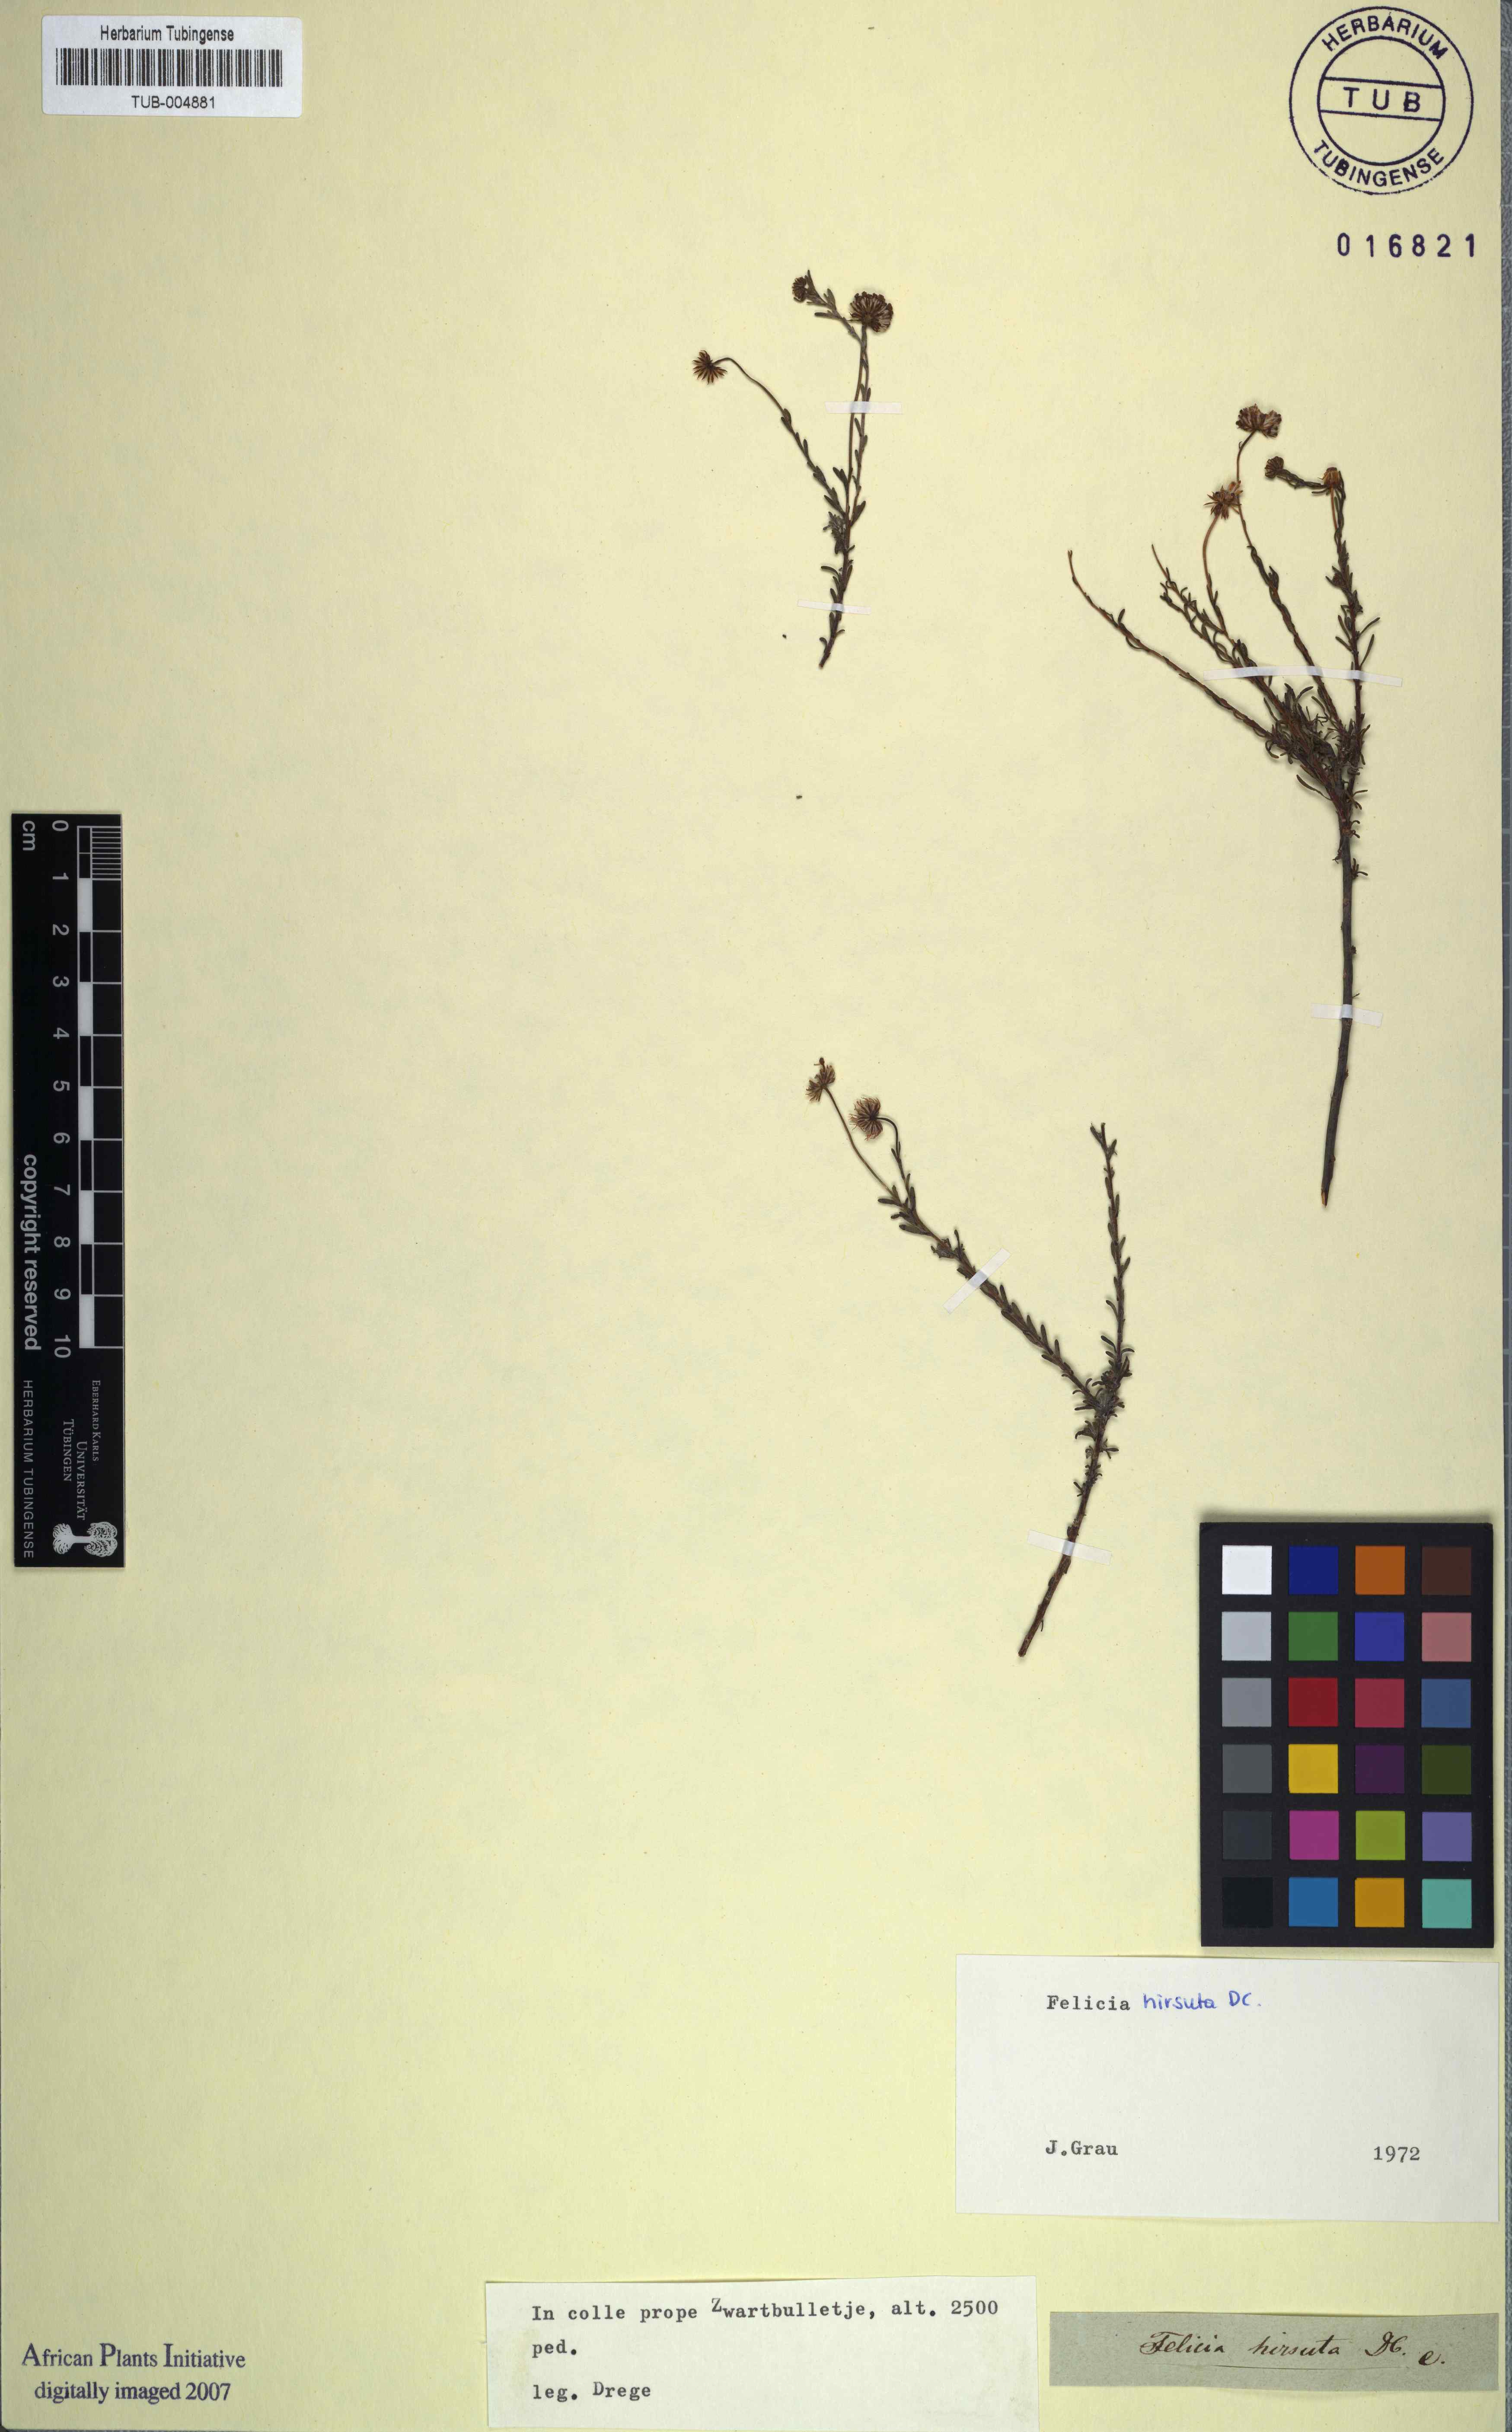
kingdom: Plantae
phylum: Tracheophyta
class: Magnoliopsida
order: Asterales
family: Asteraceae
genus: Felicia
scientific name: Felicia hirsuta
